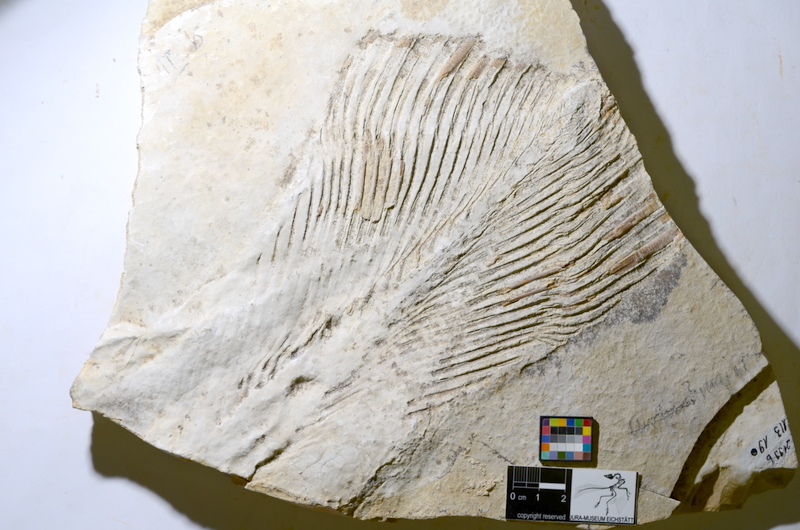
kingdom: Animalia
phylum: Chordata
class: Coelacanthi
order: Coelacanthiformes
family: Mawsoniidae
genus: Libys
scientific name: Libys
